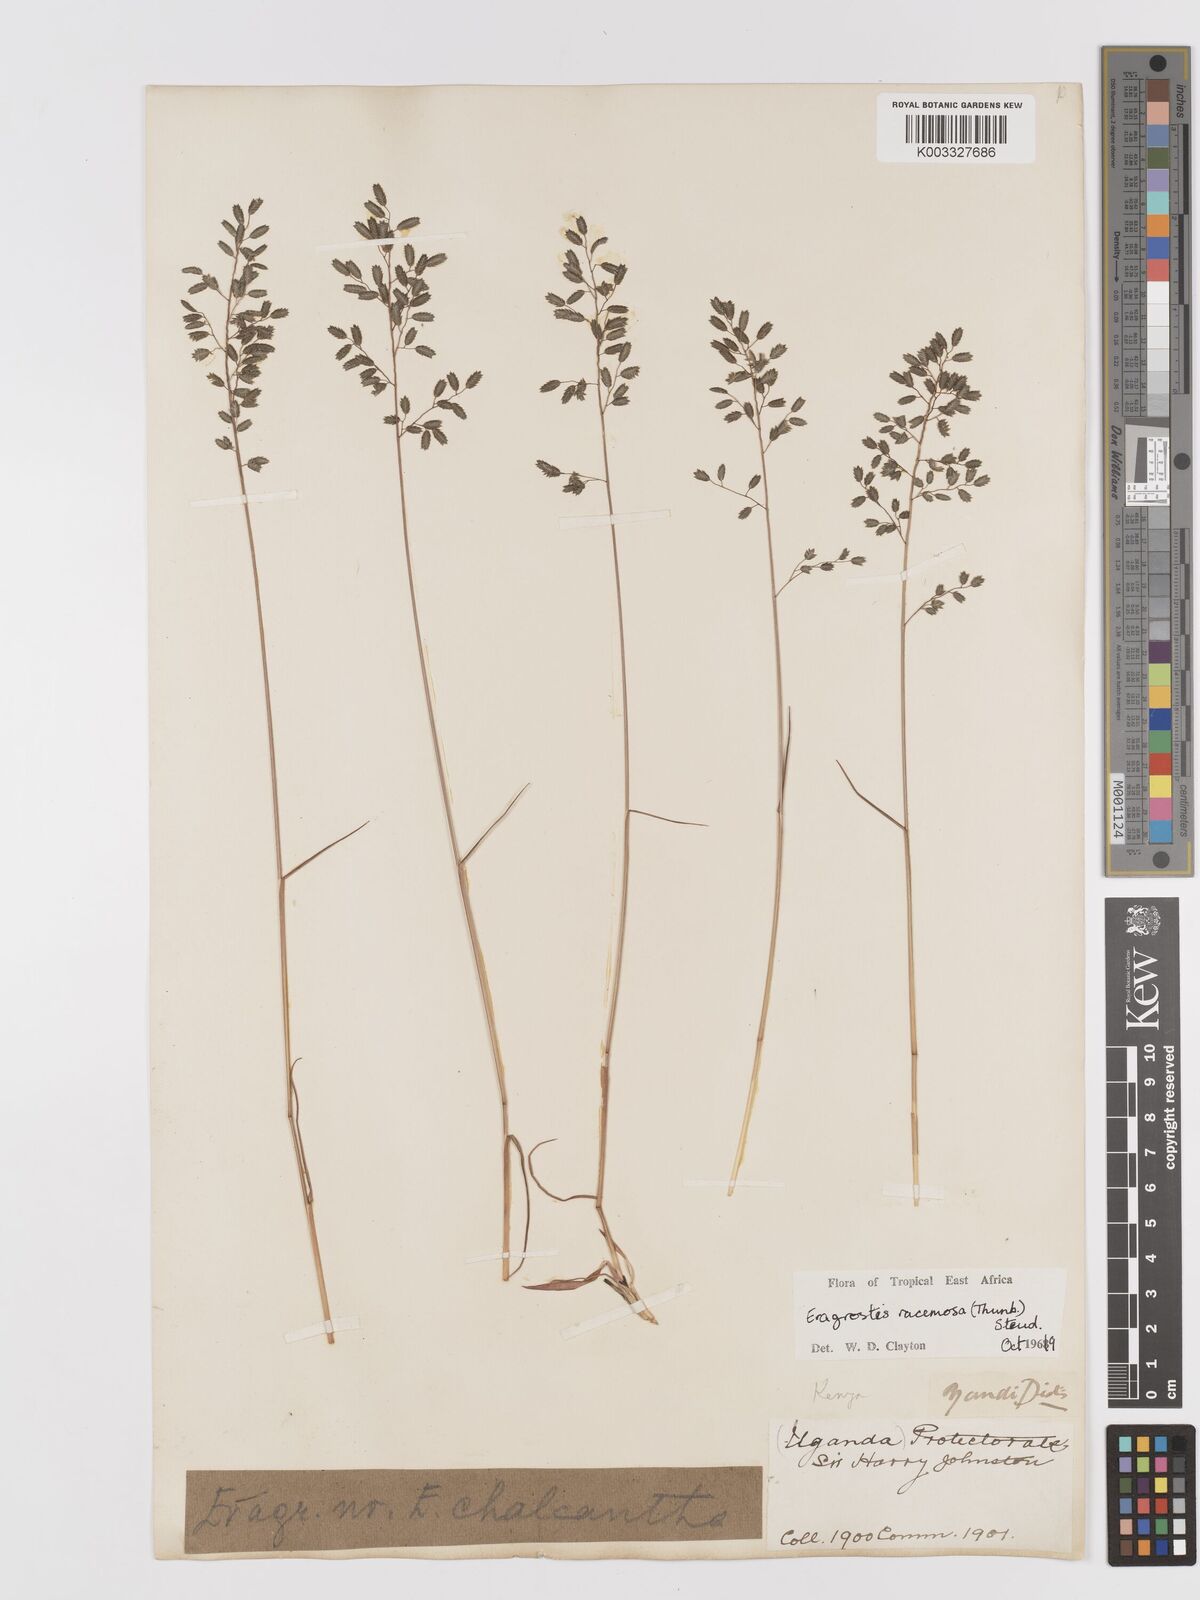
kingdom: Plantae
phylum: Tracheophyta
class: Liliopsida
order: Poales
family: Poaceae
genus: Eragrostis
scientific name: Eragrostis racemosa
